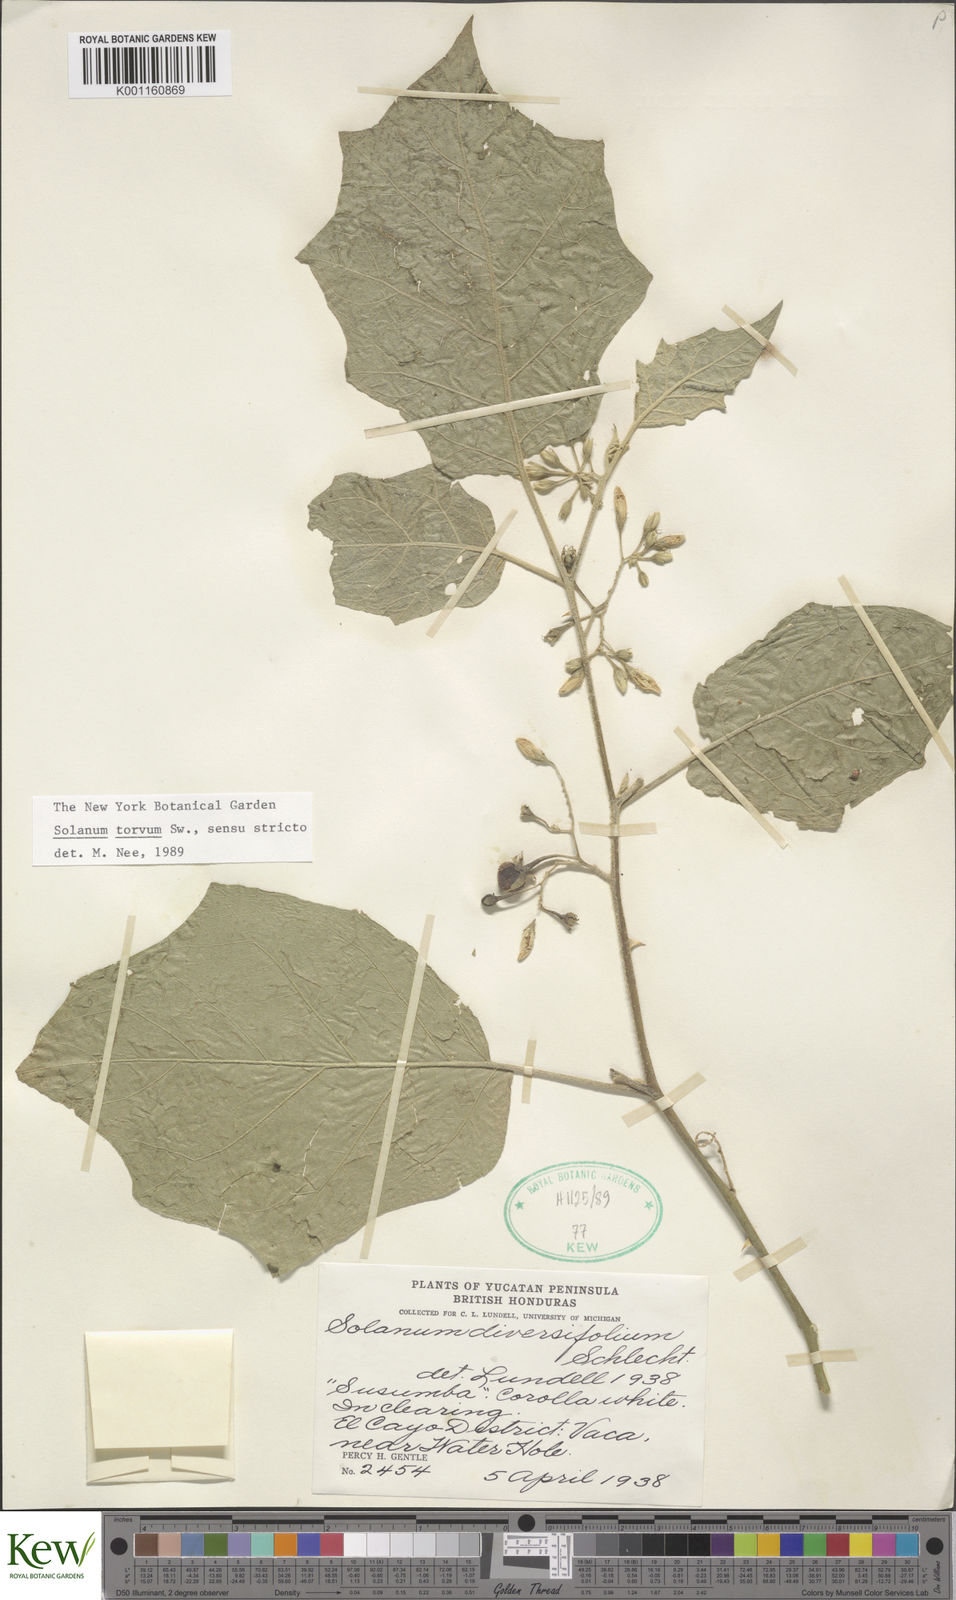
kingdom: Plantae
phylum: Tracheophyta
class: Magnoliopsida
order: Solanales
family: Solanaceae
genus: Solanum
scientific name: Solanum torvum
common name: Turkey berry
